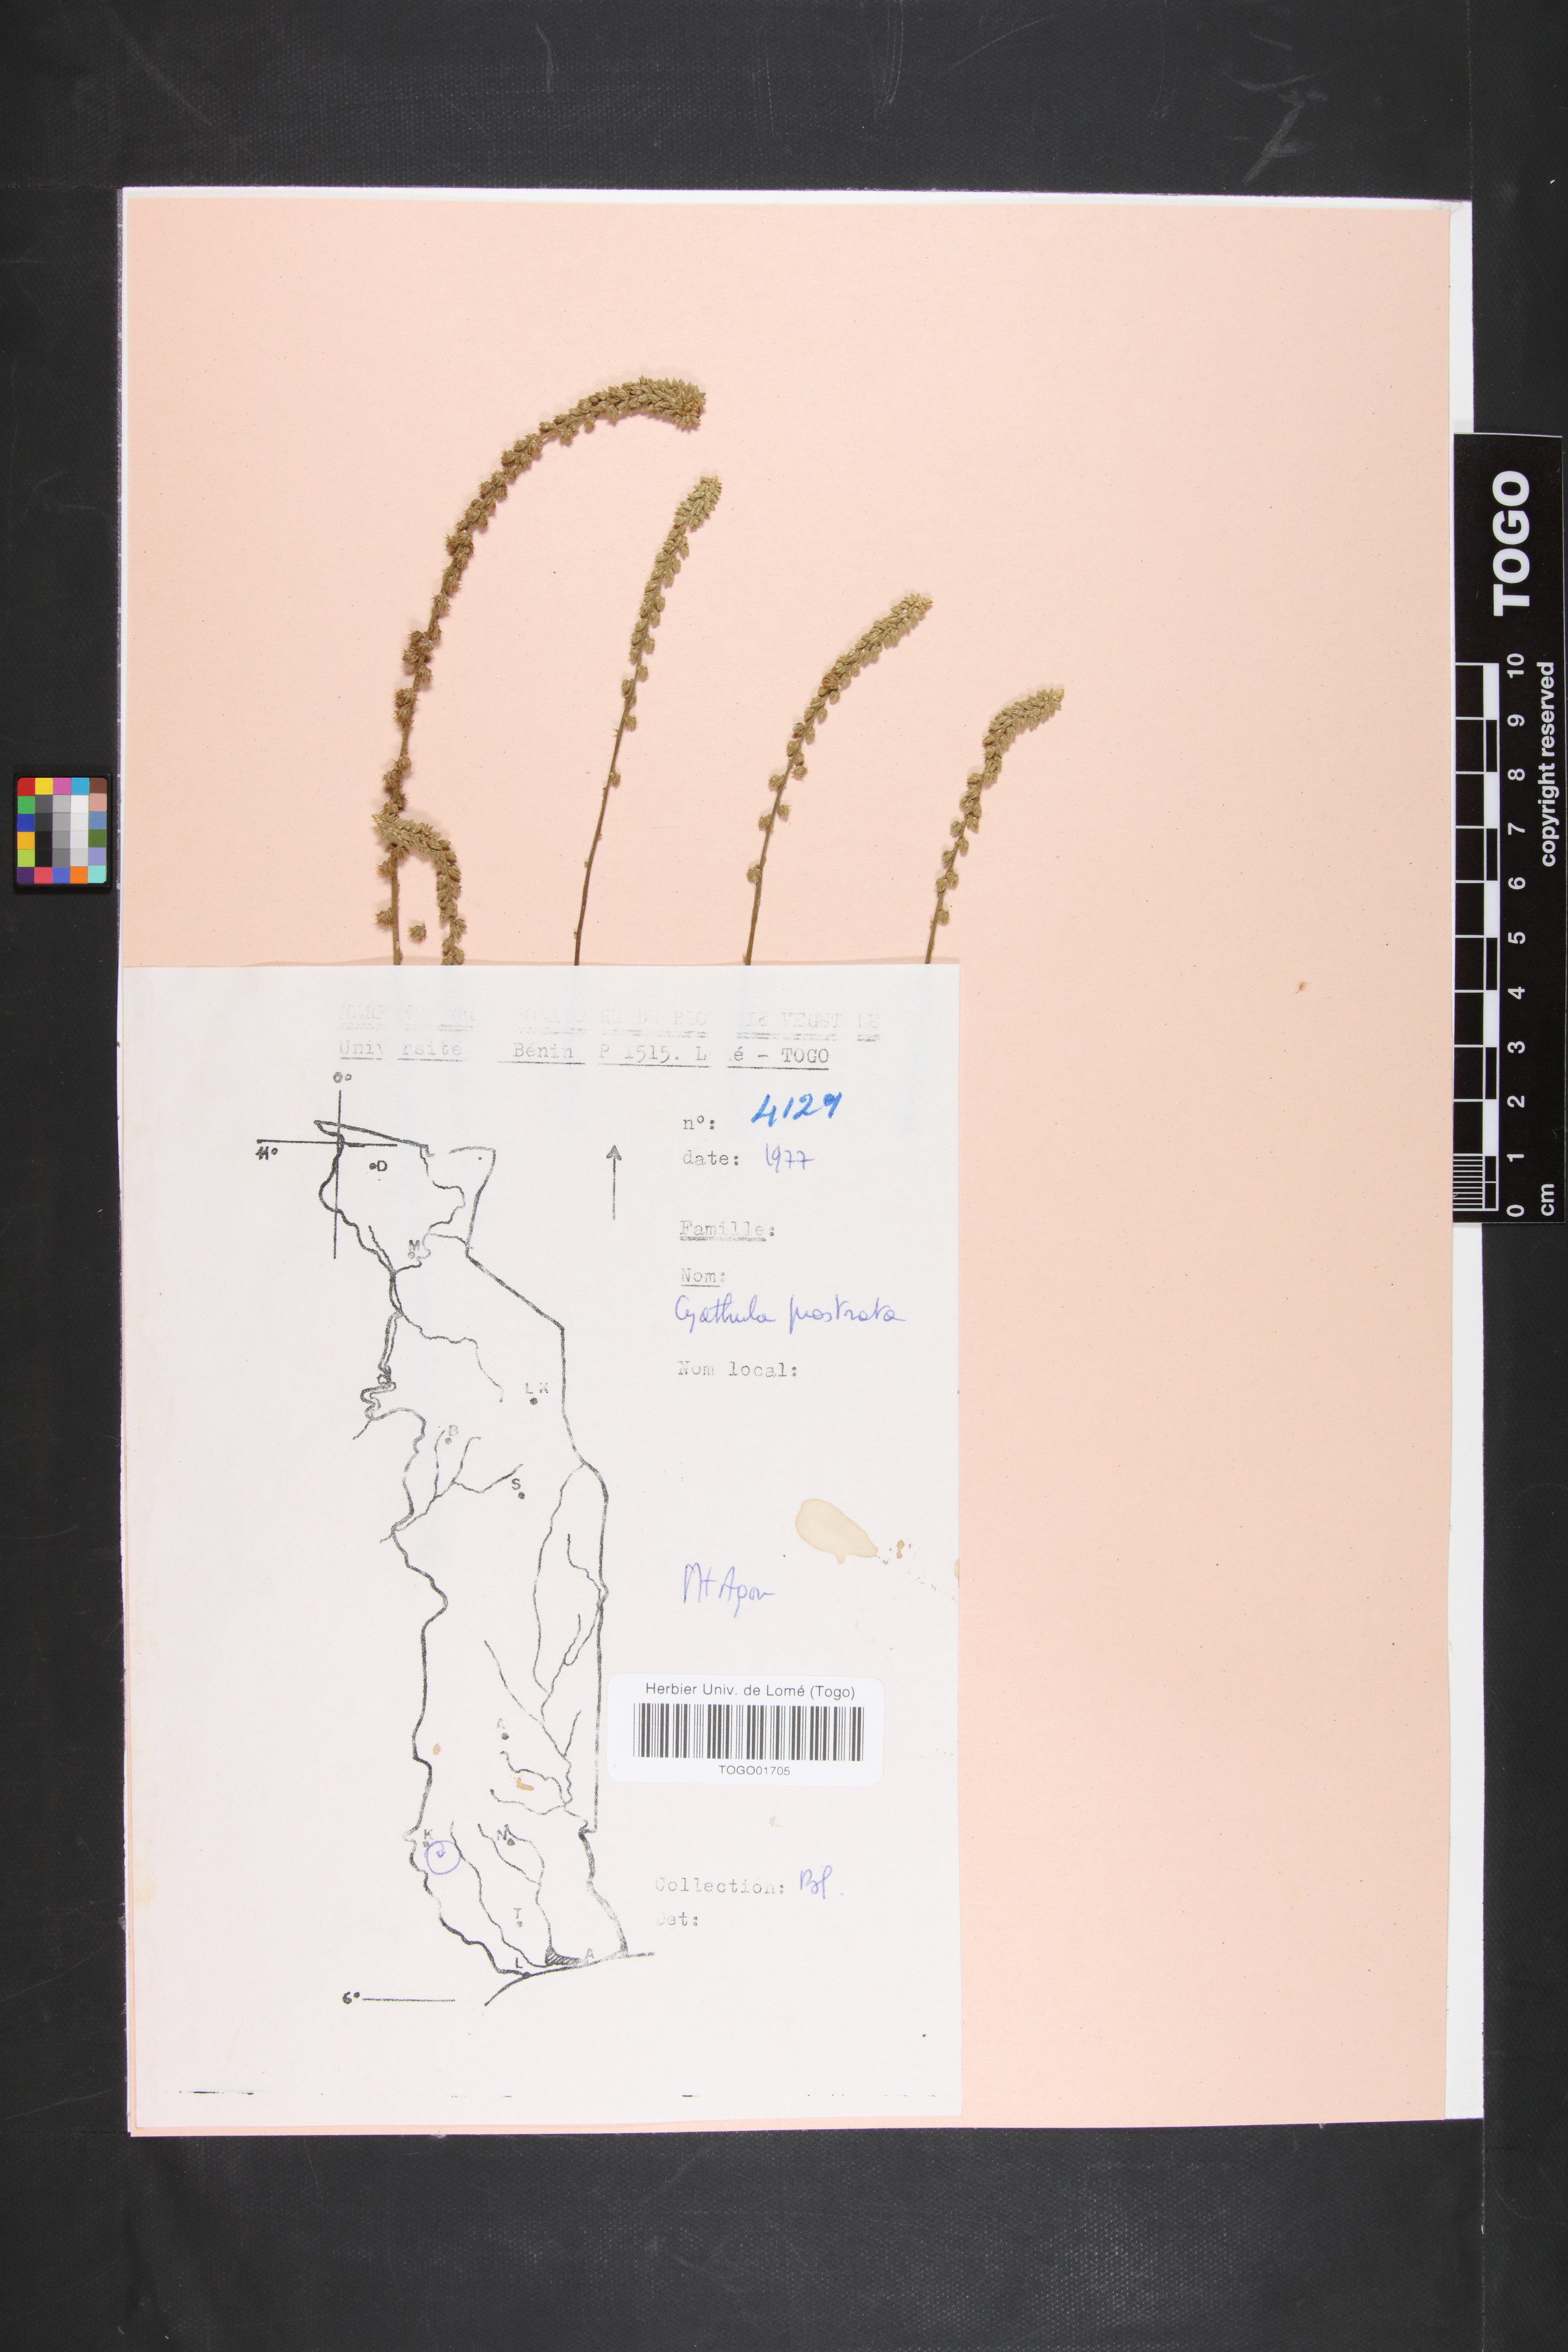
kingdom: Plantae
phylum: Tracheophyta
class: Magnoliopsida
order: Caryophyllales
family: Amaranthaceae
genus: Cyathula
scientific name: Cyathula prostrata
